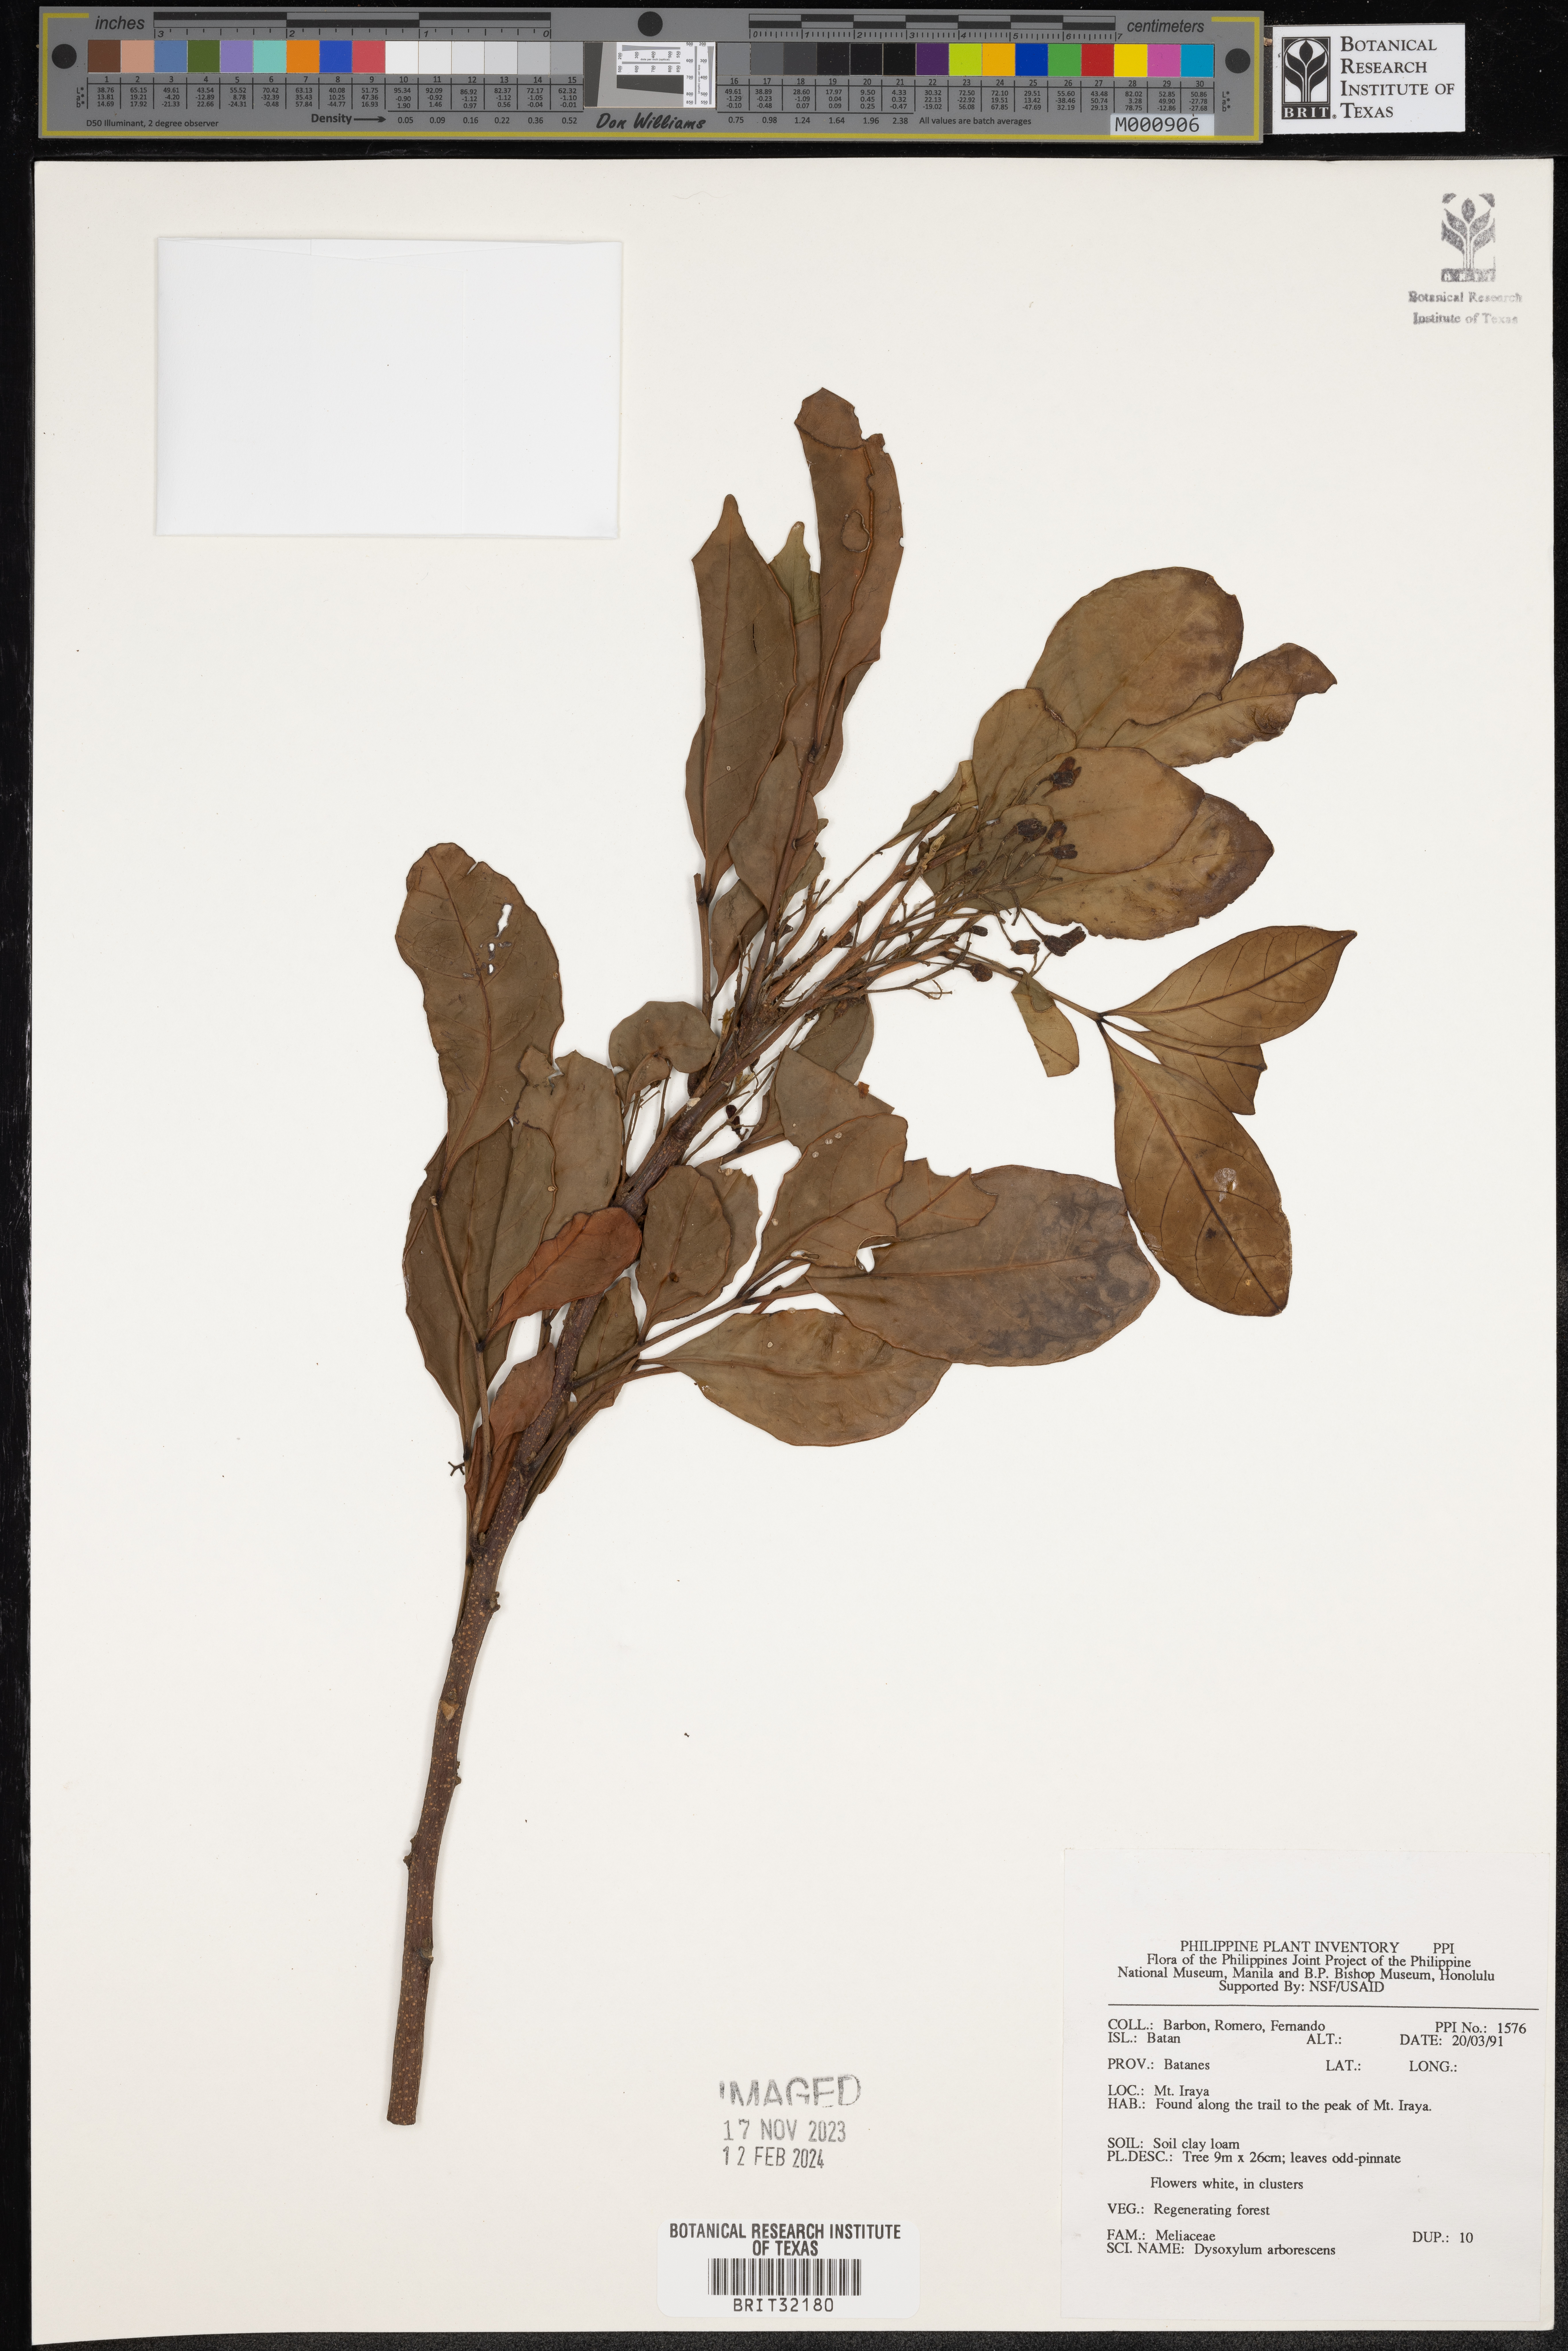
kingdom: Plantae
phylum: Tracheophyta
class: Magnoliopsida
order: Sapindales
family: Meliaceae
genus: Goniocheton
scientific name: Goniocheton arborescens
